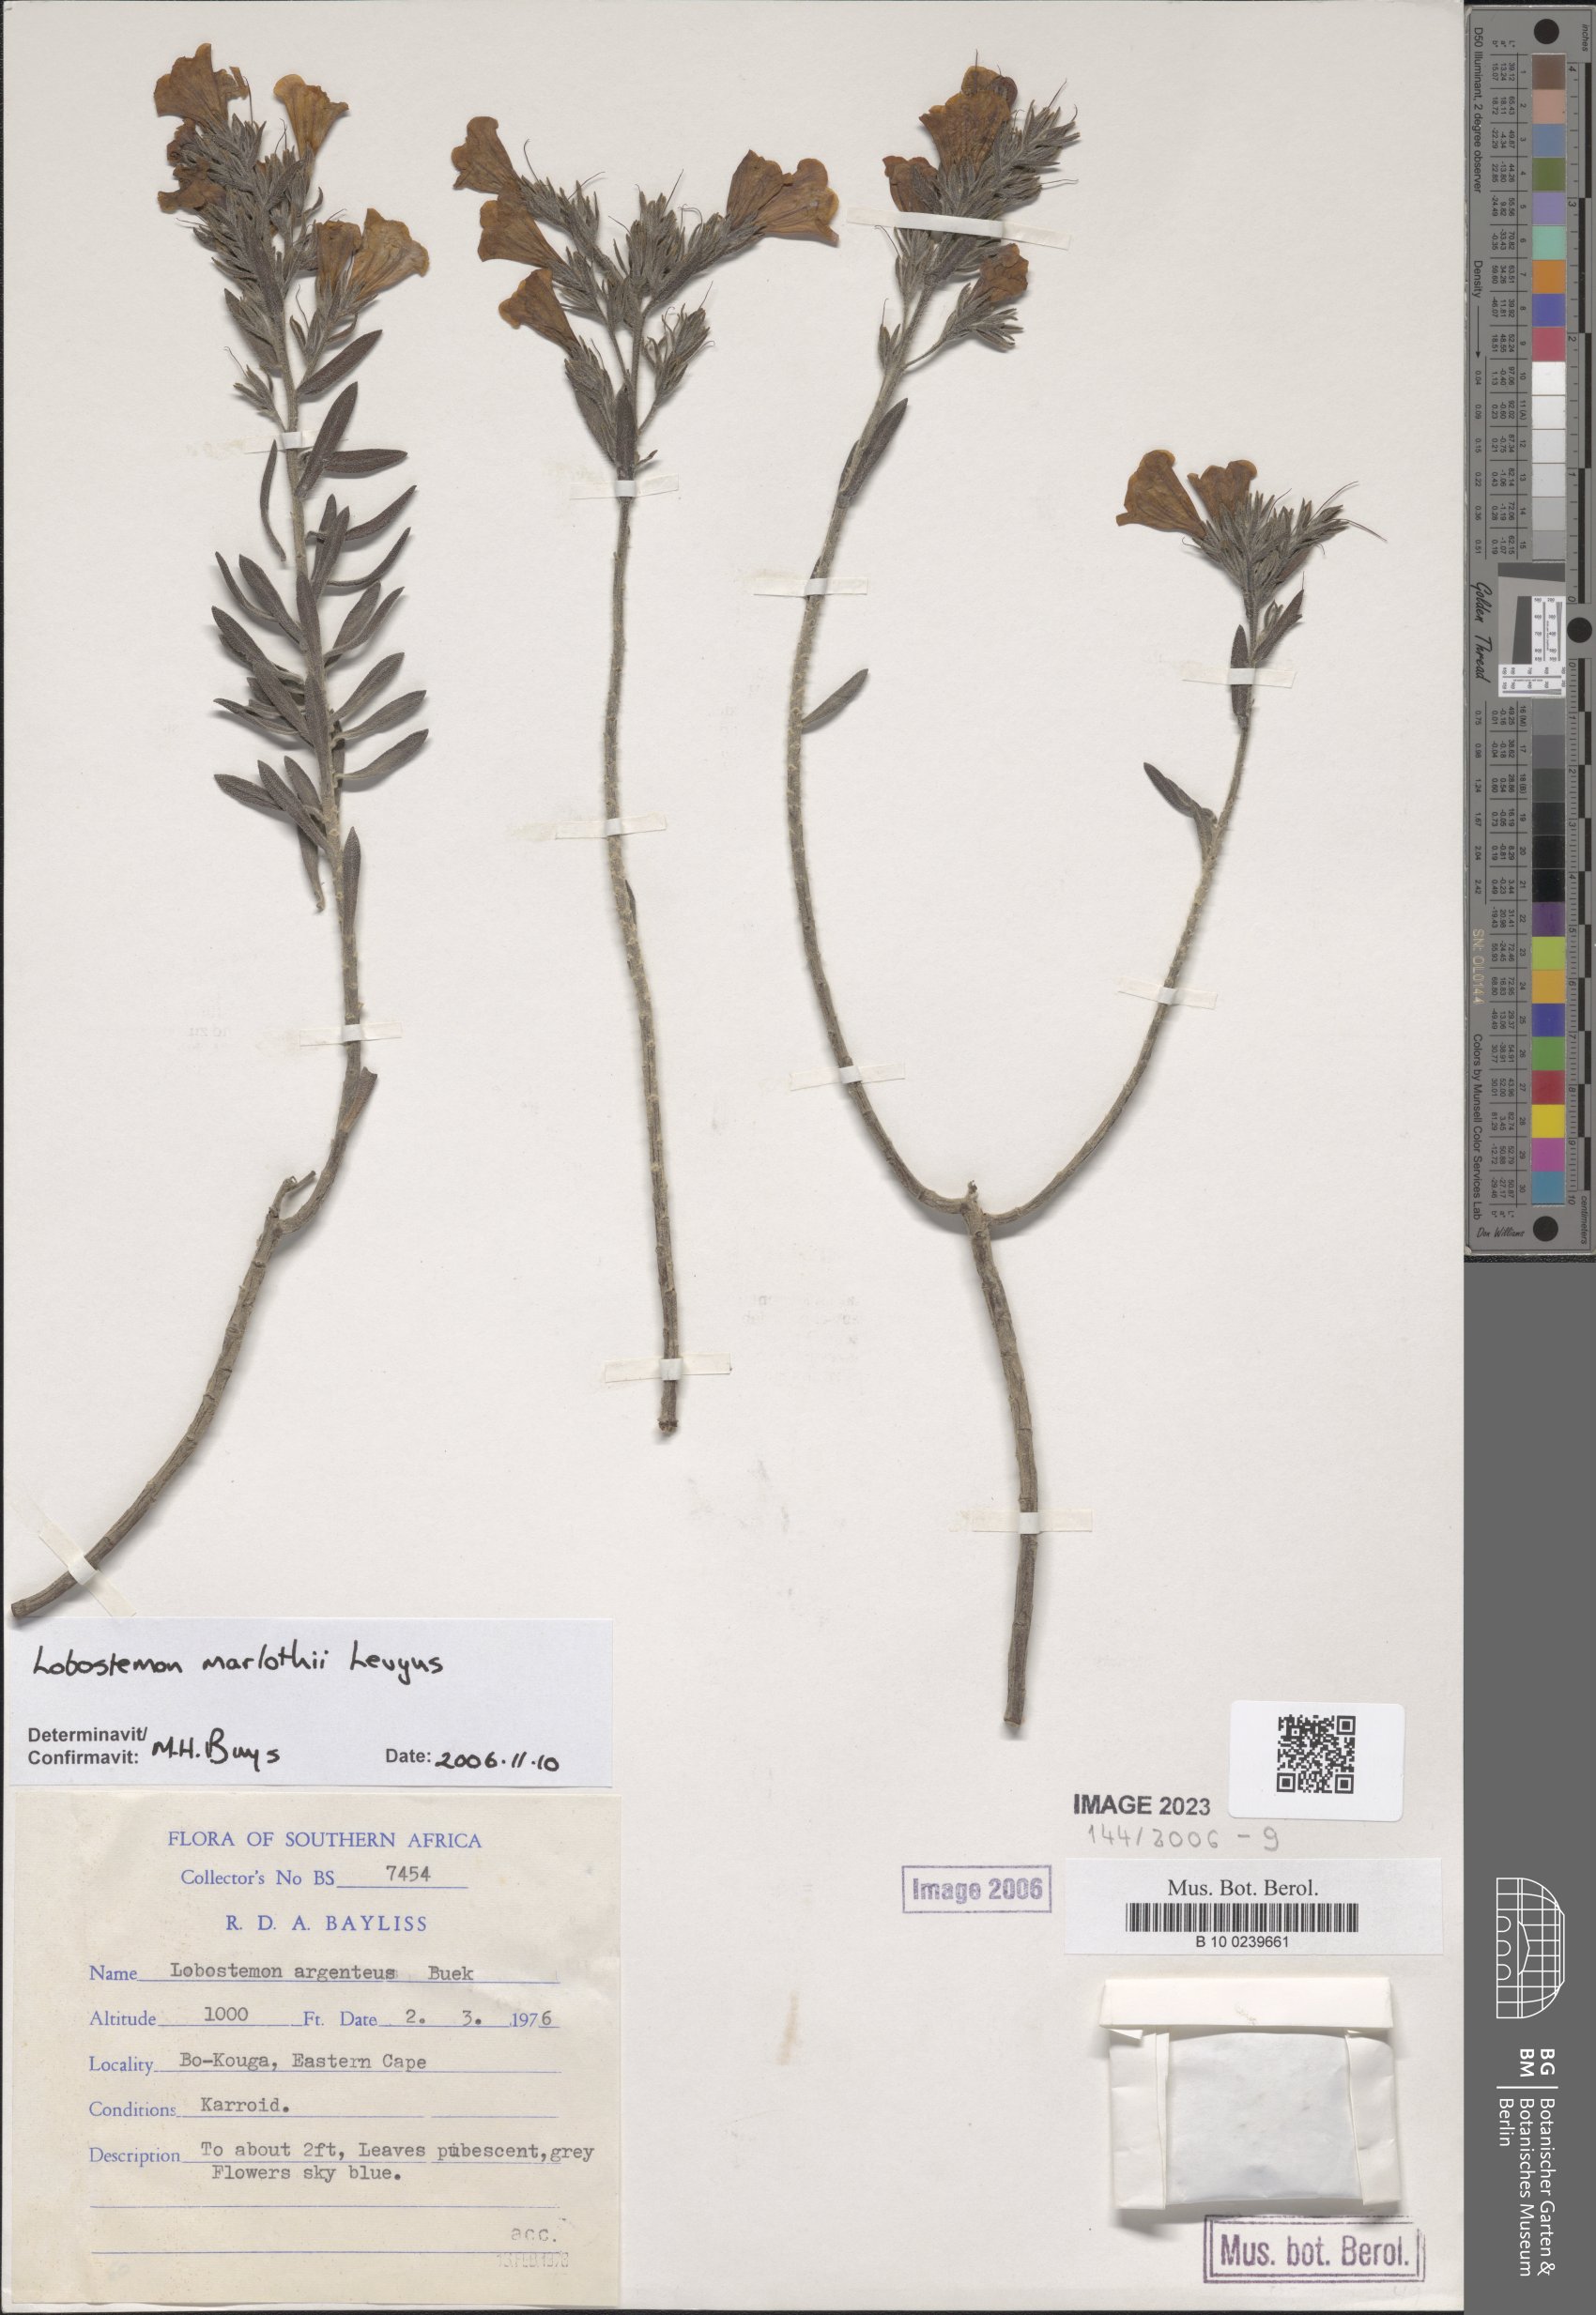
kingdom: Plantae
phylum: Tracheophyta
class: Magnoliopsida
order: Boraginales
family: Boraginaceae
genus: Lobostemon
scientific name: Lobostemon argenteus
